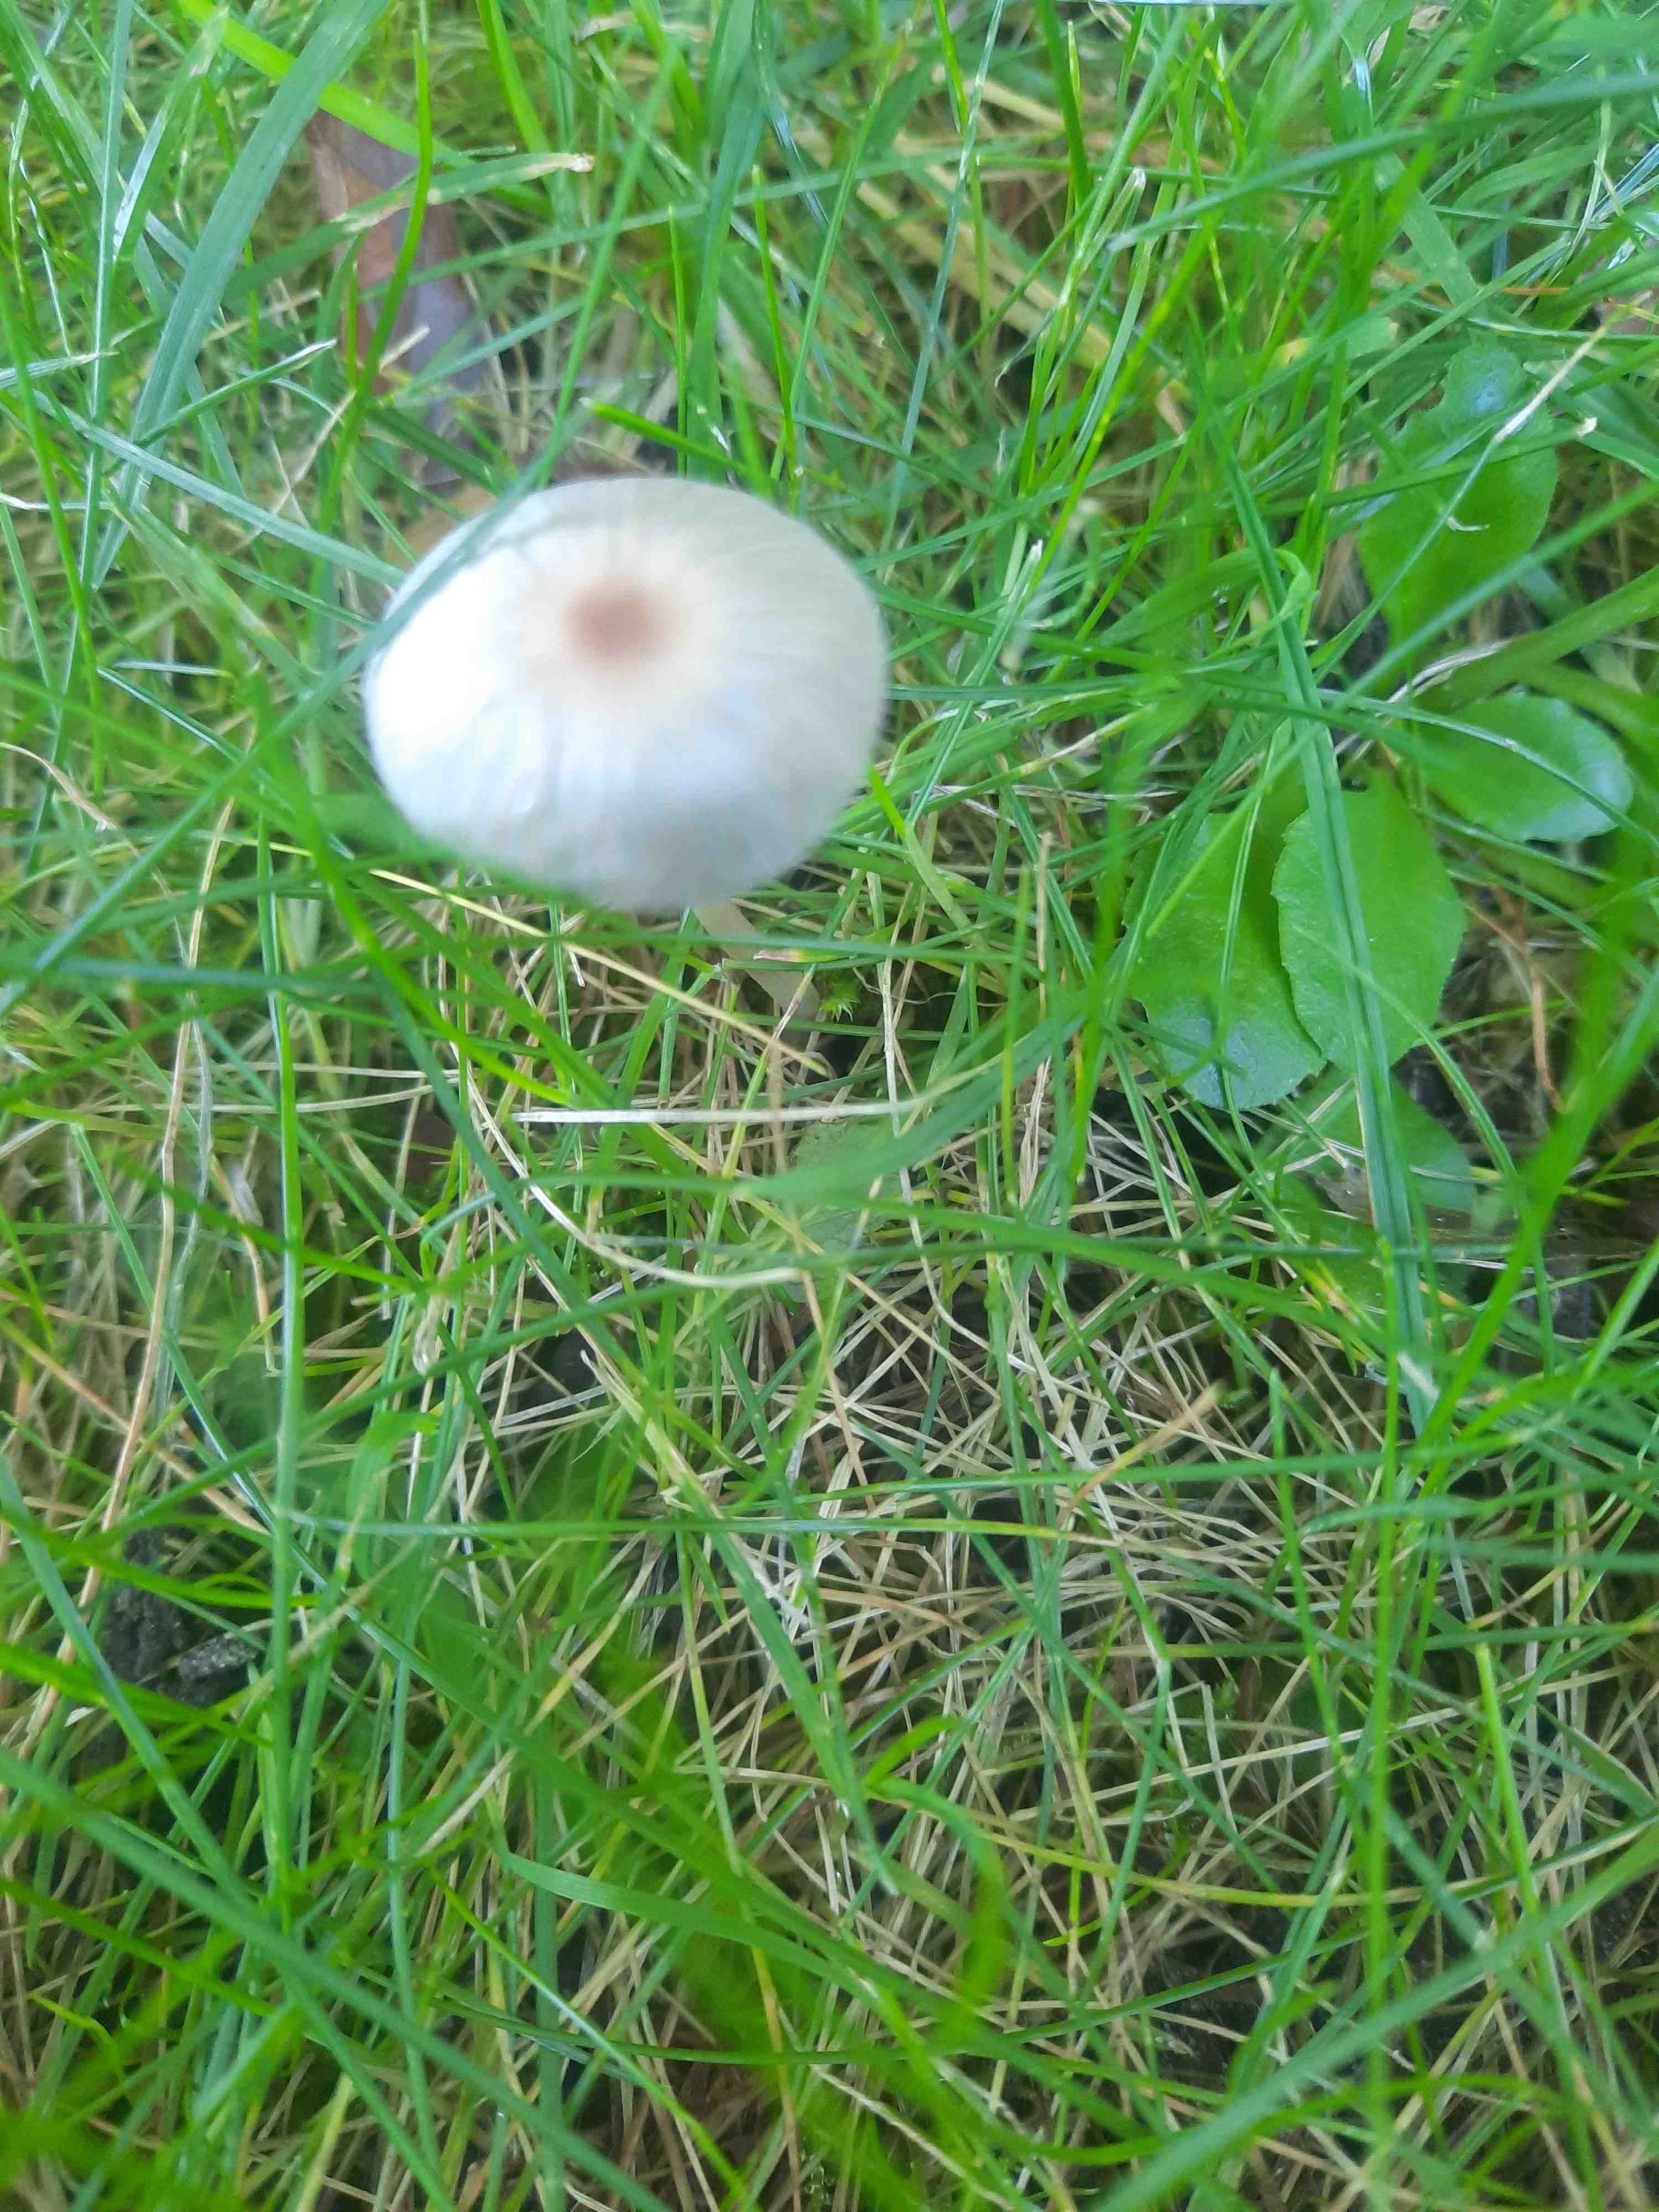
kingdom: Fungi
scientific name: Fungi
